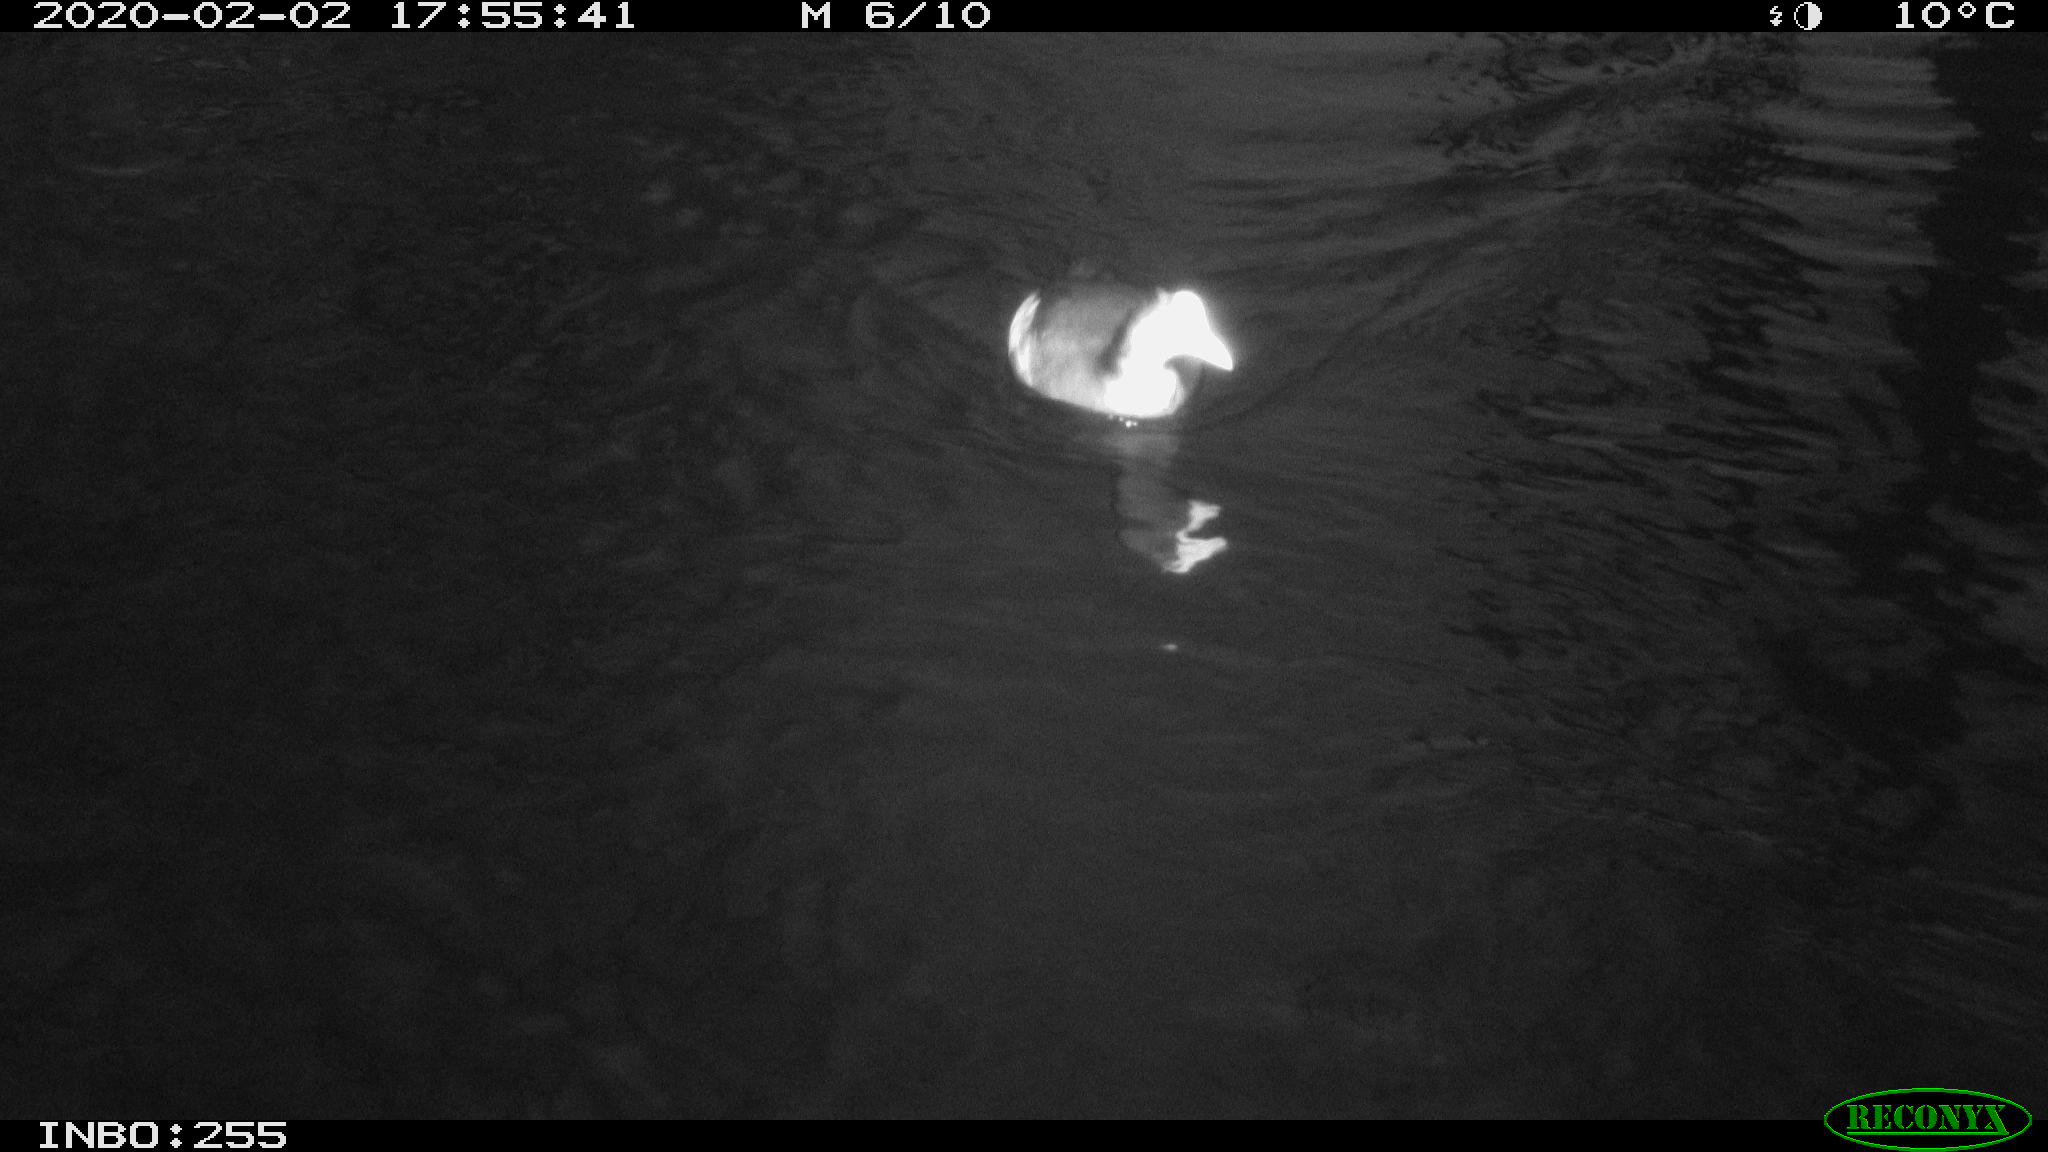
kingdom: Animalia
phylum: Chordata
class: Aves
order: Gruiformes
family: Rallidae
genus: Gallinula
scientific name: Gallinula chloropus
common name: Common moorhen
